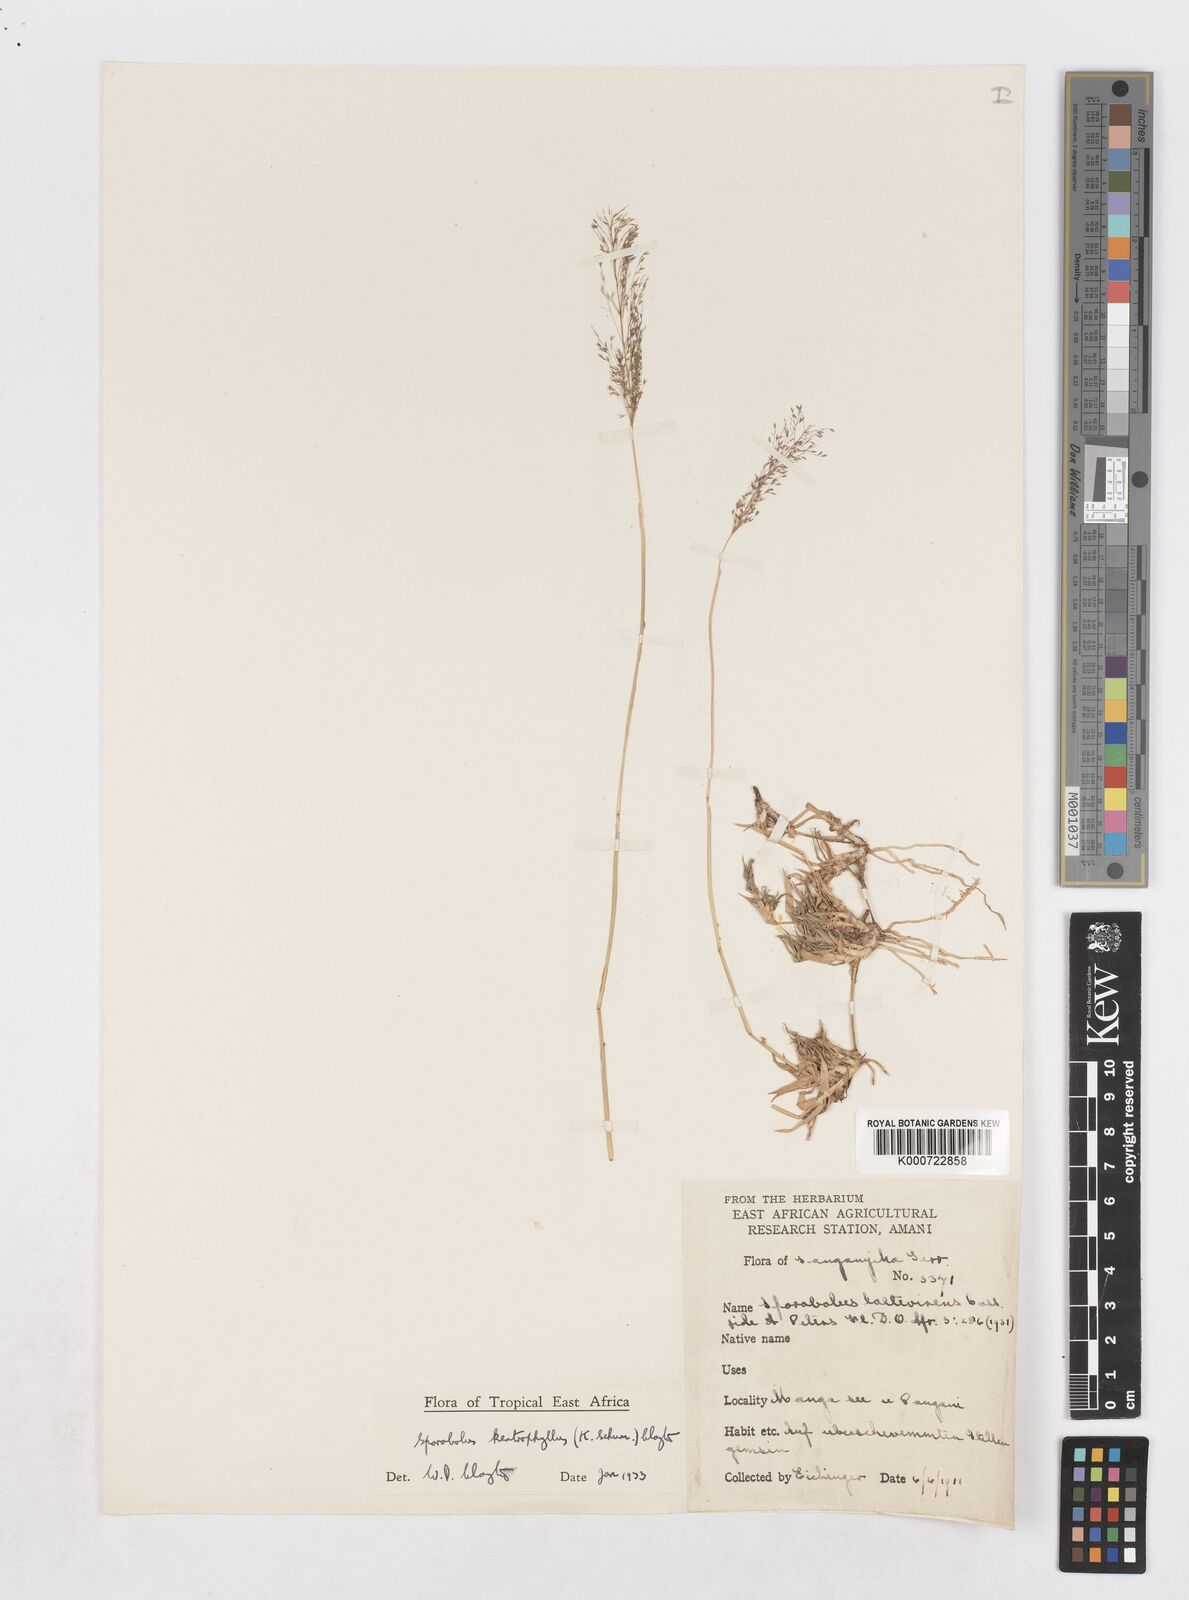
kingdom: Plantae
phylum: Tracheophyta
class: Liliopsida
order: Poales
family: Poaceae
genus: Sporobolus
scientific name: Sporobolus ioclados
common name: Pan dropseed
